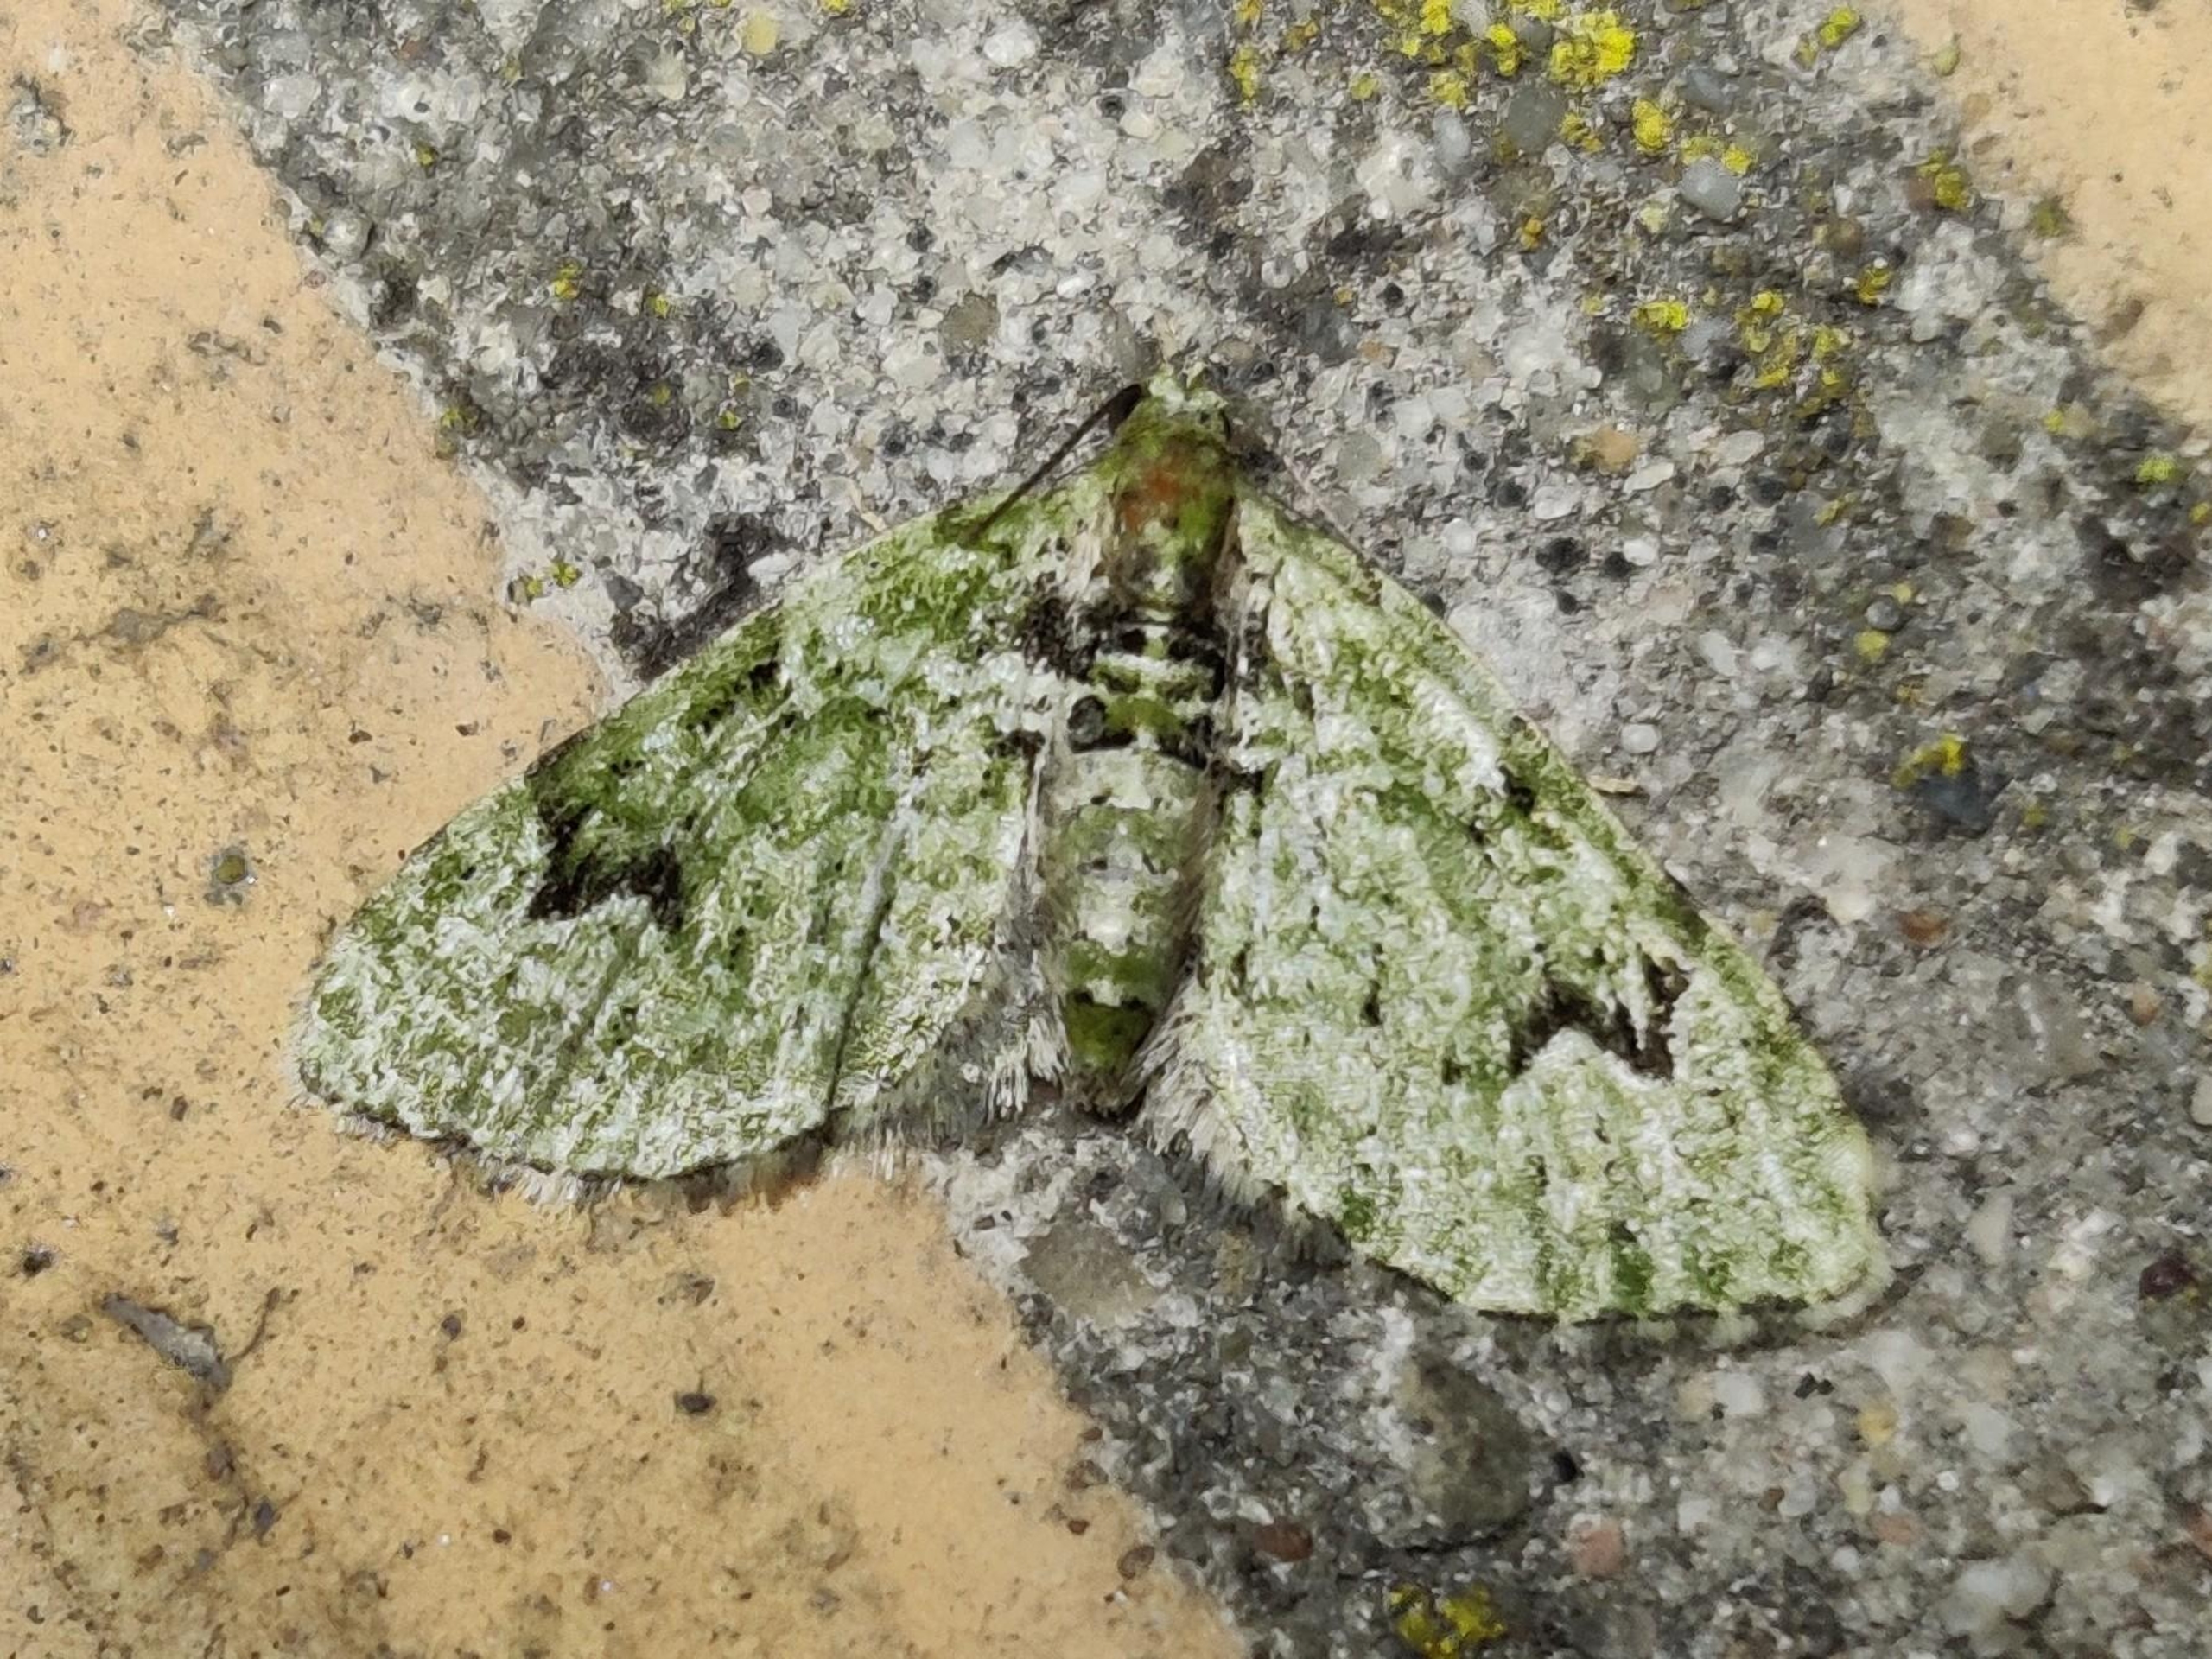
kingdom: Animalia
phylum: Arthropoda
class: Insecta
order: Lepidoptera
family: Geometridae
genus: Chloroclystis
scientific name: Chloroclystis v-ata
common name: V-dværgmåler
